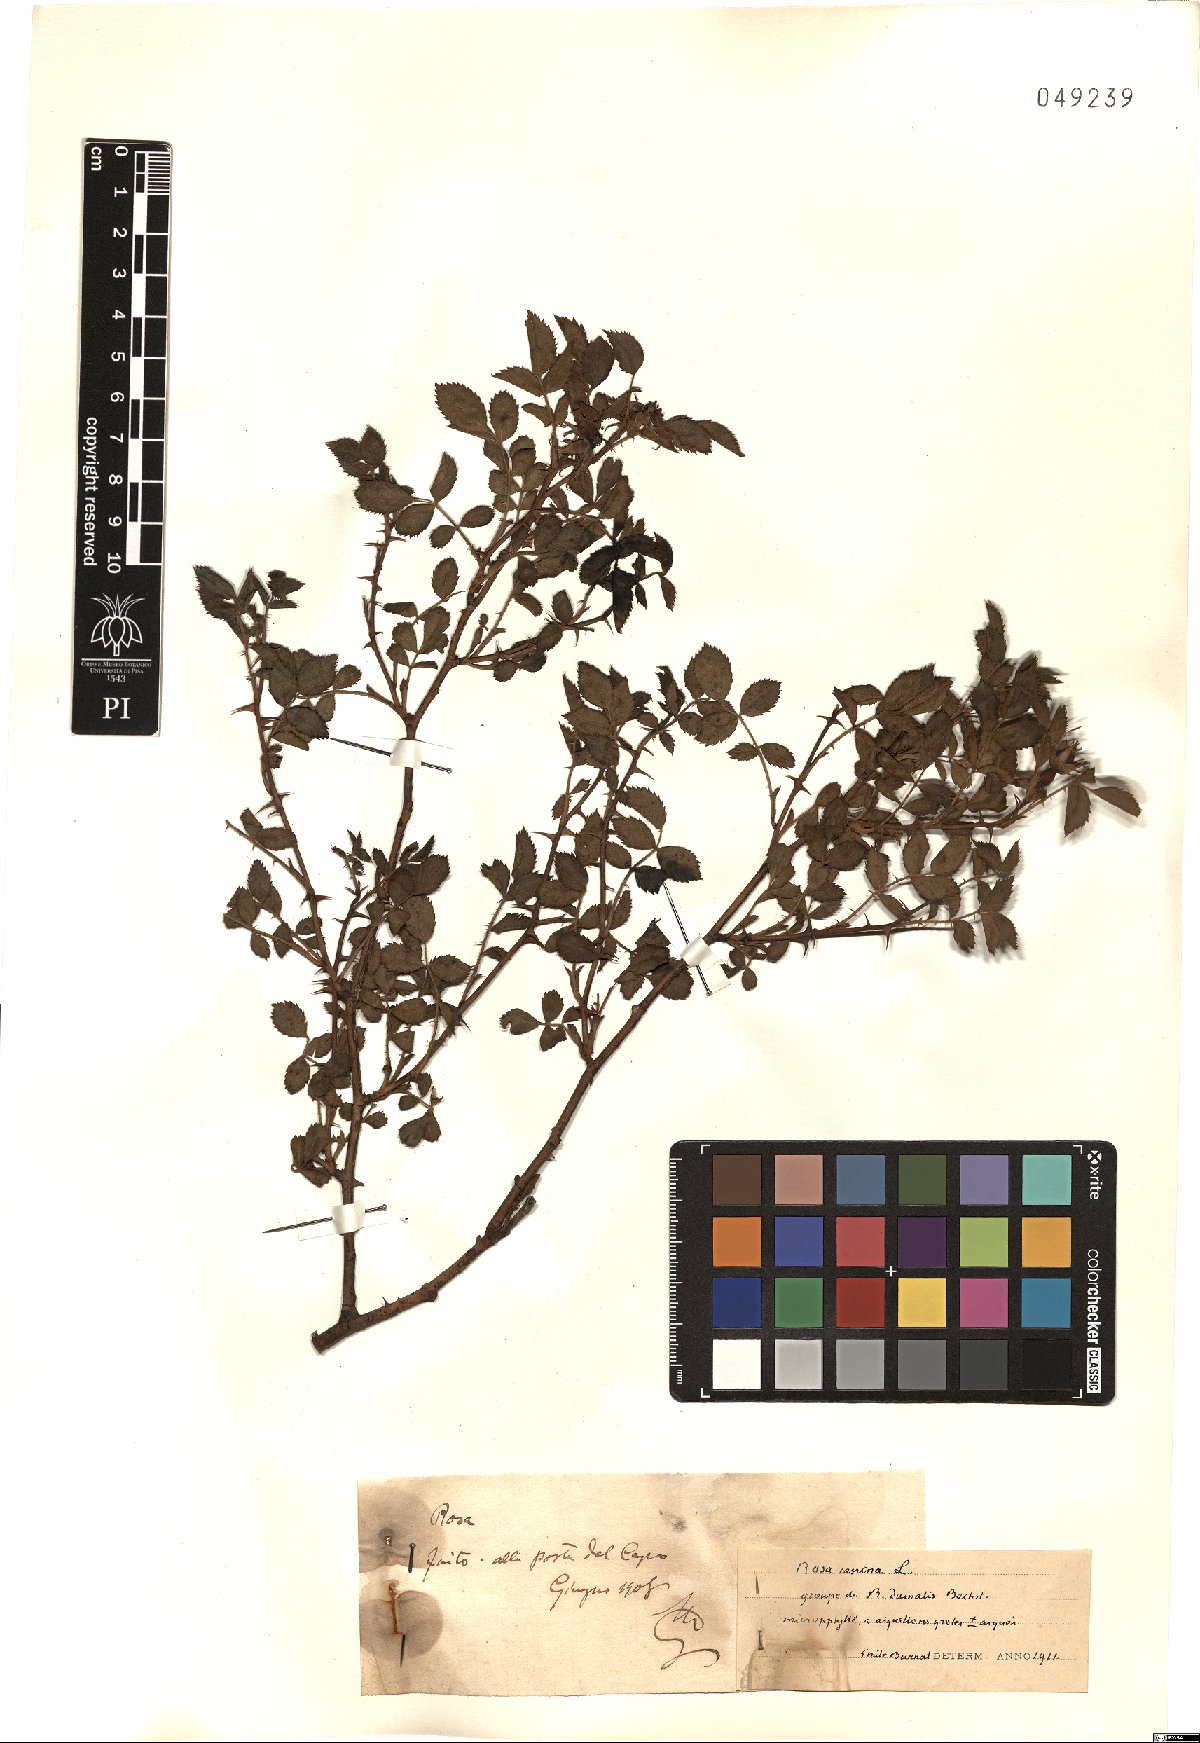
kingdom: Plantae
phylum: Tracheophyta
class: Magnoliopsida
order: Rosales
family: Rosaceae
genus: Rosa
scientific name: Rosa canina
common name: Dog rose
